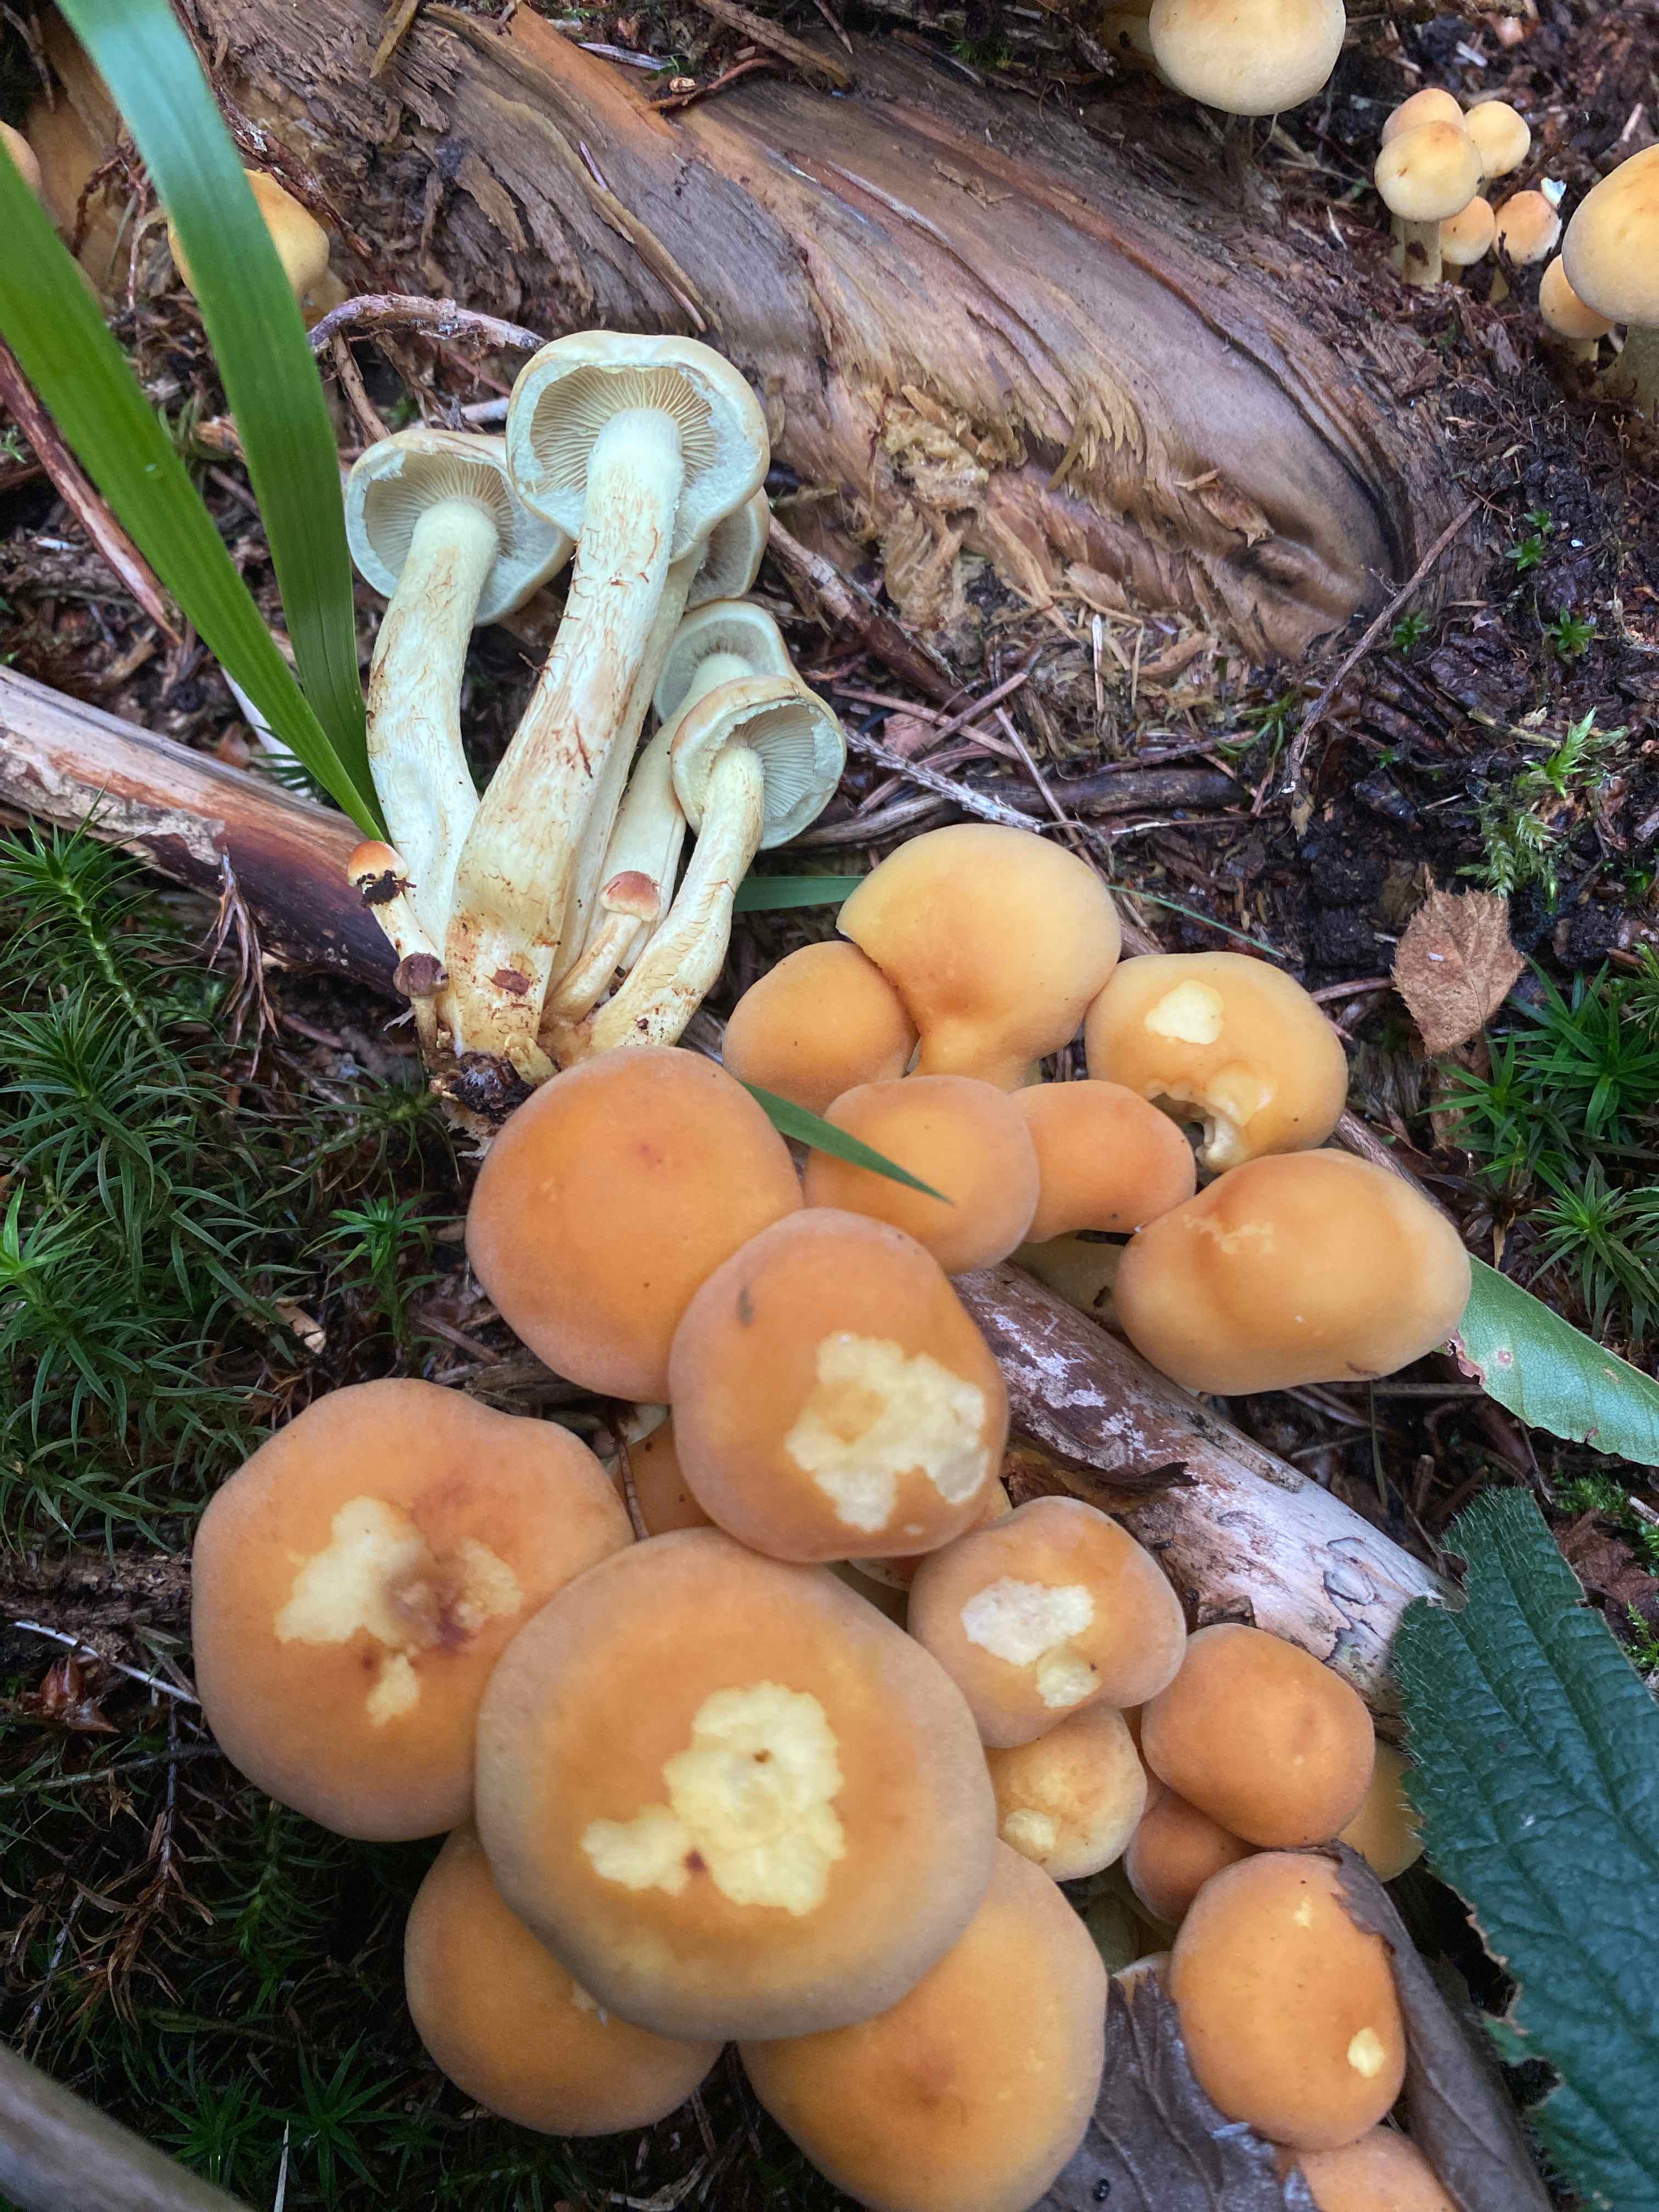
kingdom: Fungi
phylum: Basidiomycota
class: Agaricomycetes
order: Agaricales
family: Strophariaceae
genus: Hypholoma
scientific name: Hypholoma fasciculare
